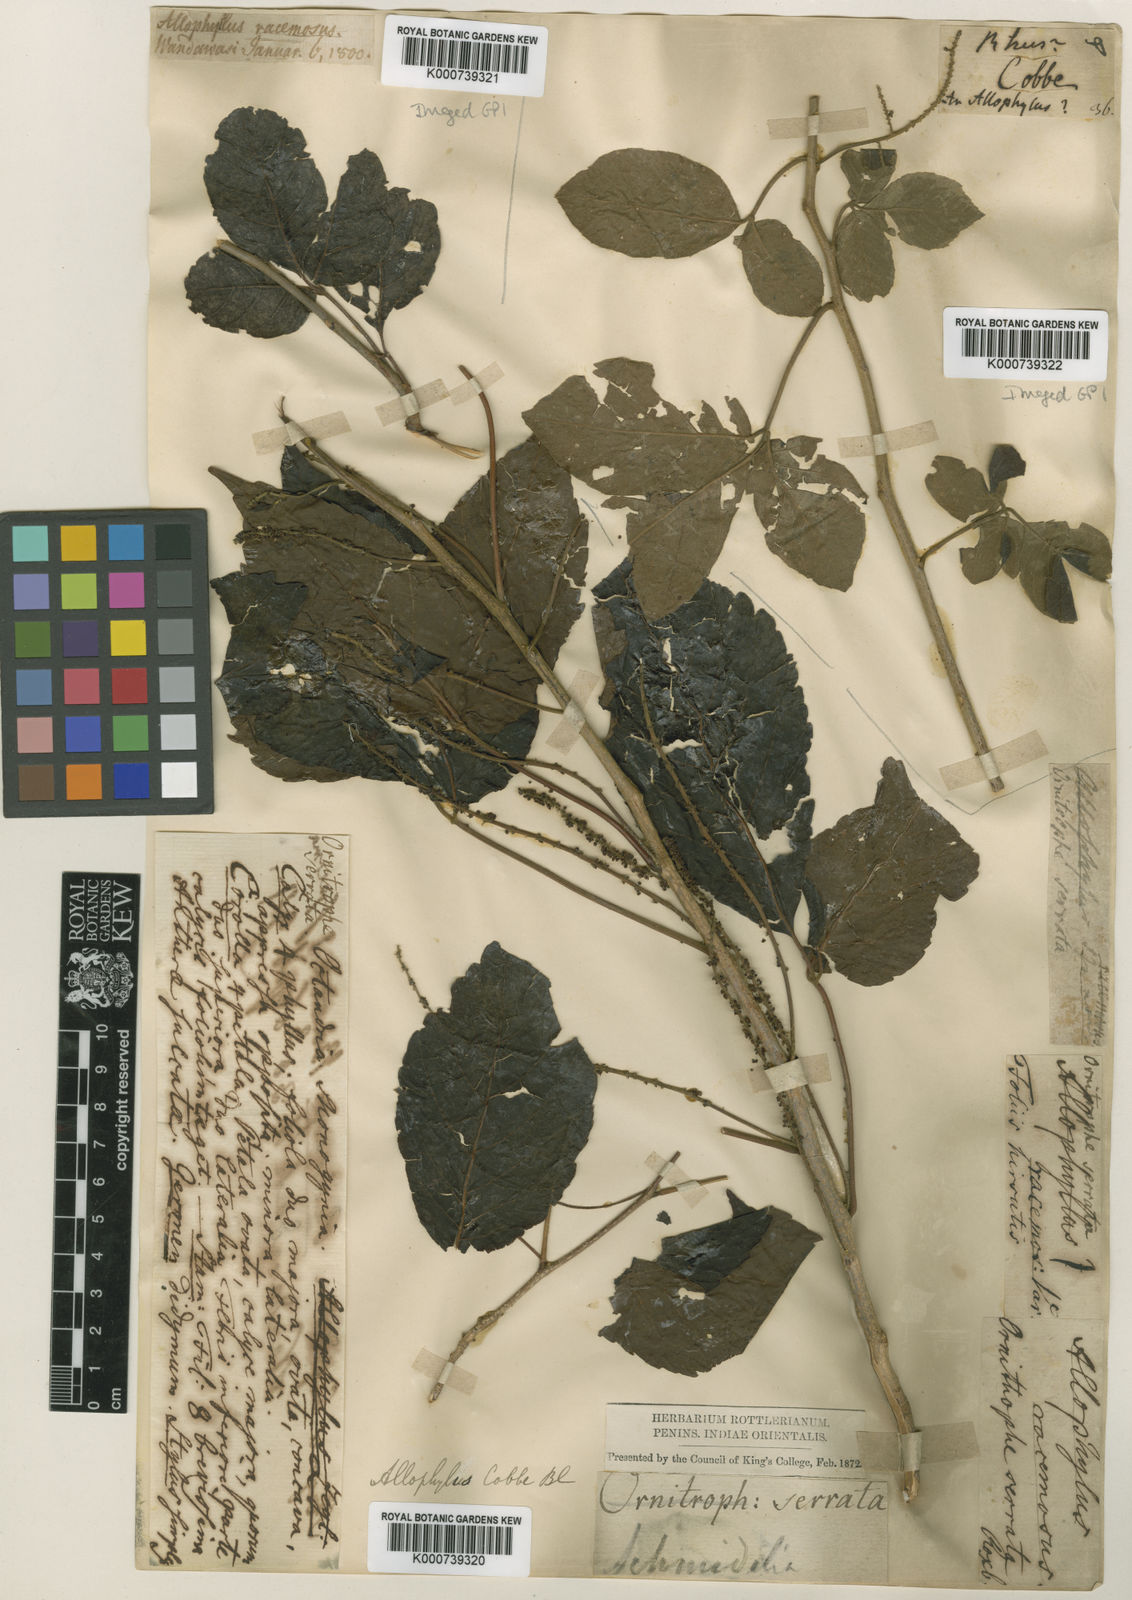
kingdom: Plantae
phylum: Tracheophyta
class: Magnoliopsida
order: Sapindales
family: Sapindaceae
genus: Allophylus
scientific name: Allophylus serratus
